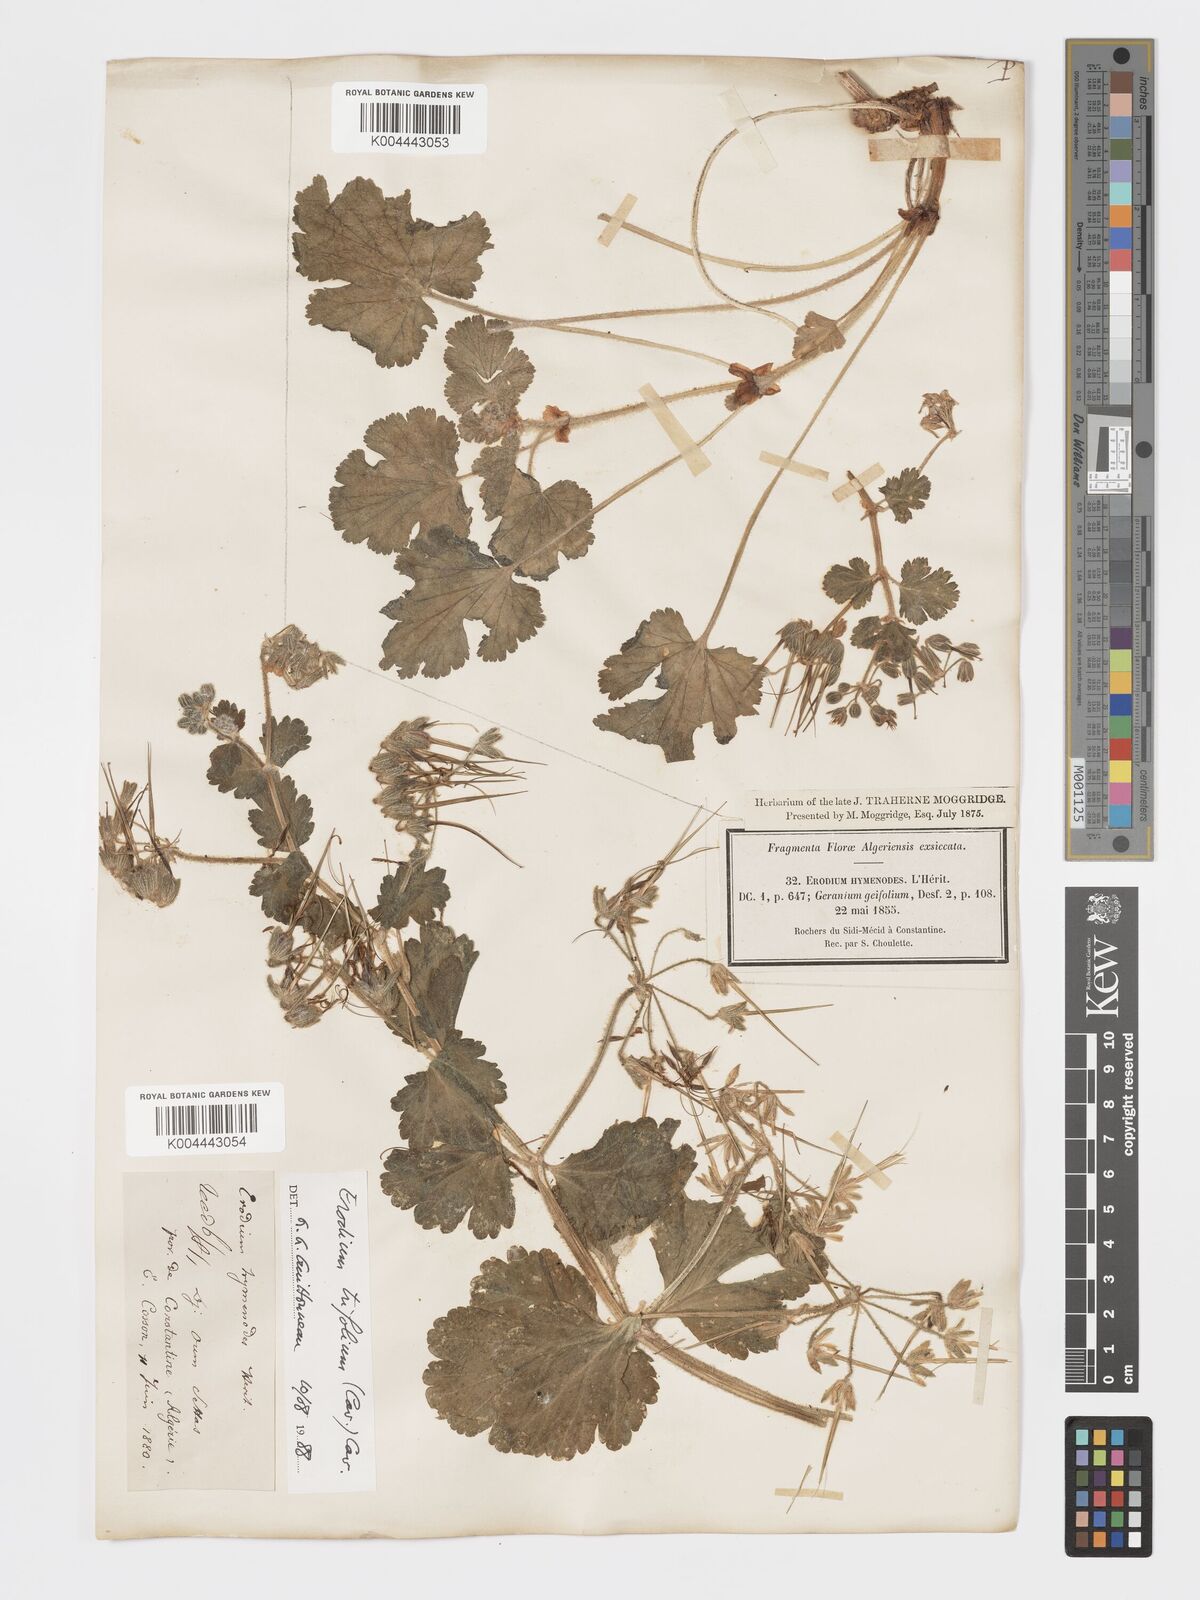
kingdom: Plantae
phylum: Tracheophyta
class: Magnoliopsida
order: Geraniales
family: Geraniaceae
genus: Erodium
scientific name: Erodium trifolium
